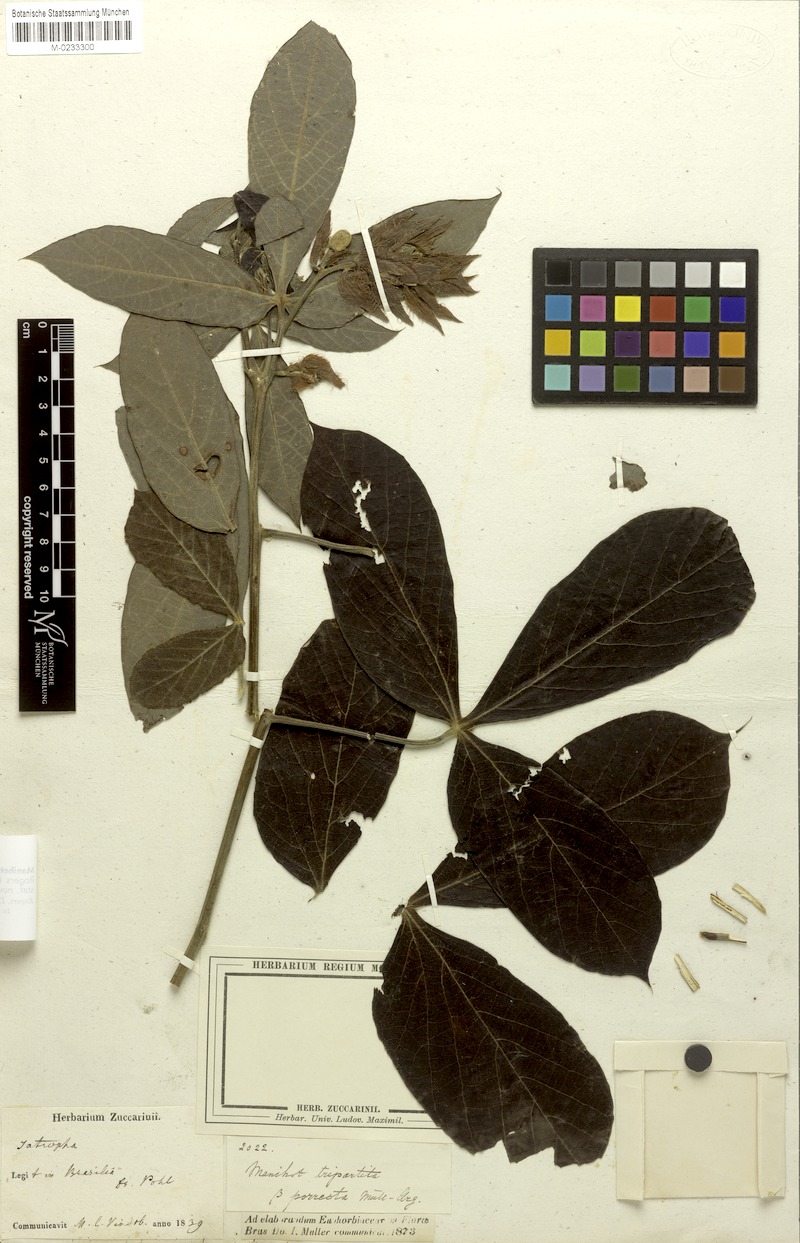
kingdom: Plantae
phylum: Tracheophyta
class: Magnoliopsida
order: Malpighiales
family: Euphorbiaceae
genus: Manihot
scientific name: Manihot tripartita
